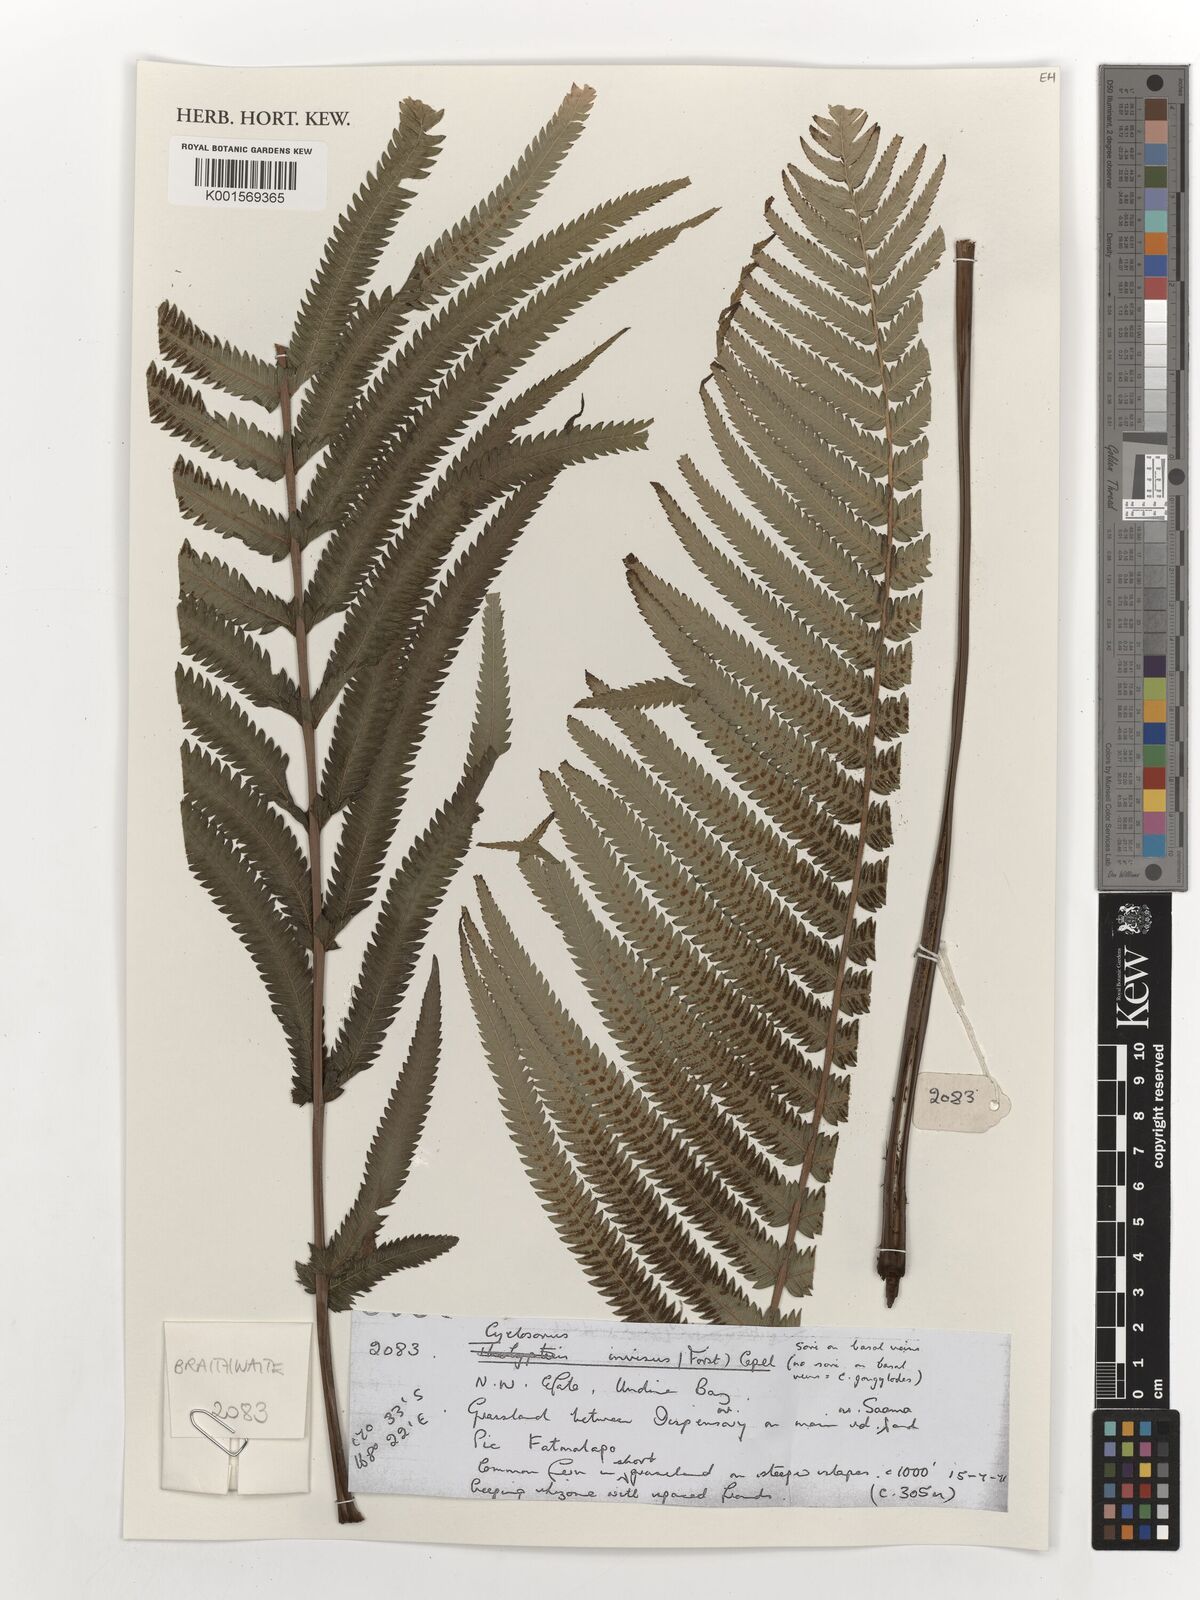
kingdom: Plantae
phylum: Tracheophyta
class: Polypodiopsida
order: Polypodiales
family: Thelypteridaceae
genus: Strophocaulon
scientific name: Strophocaulon invisum
